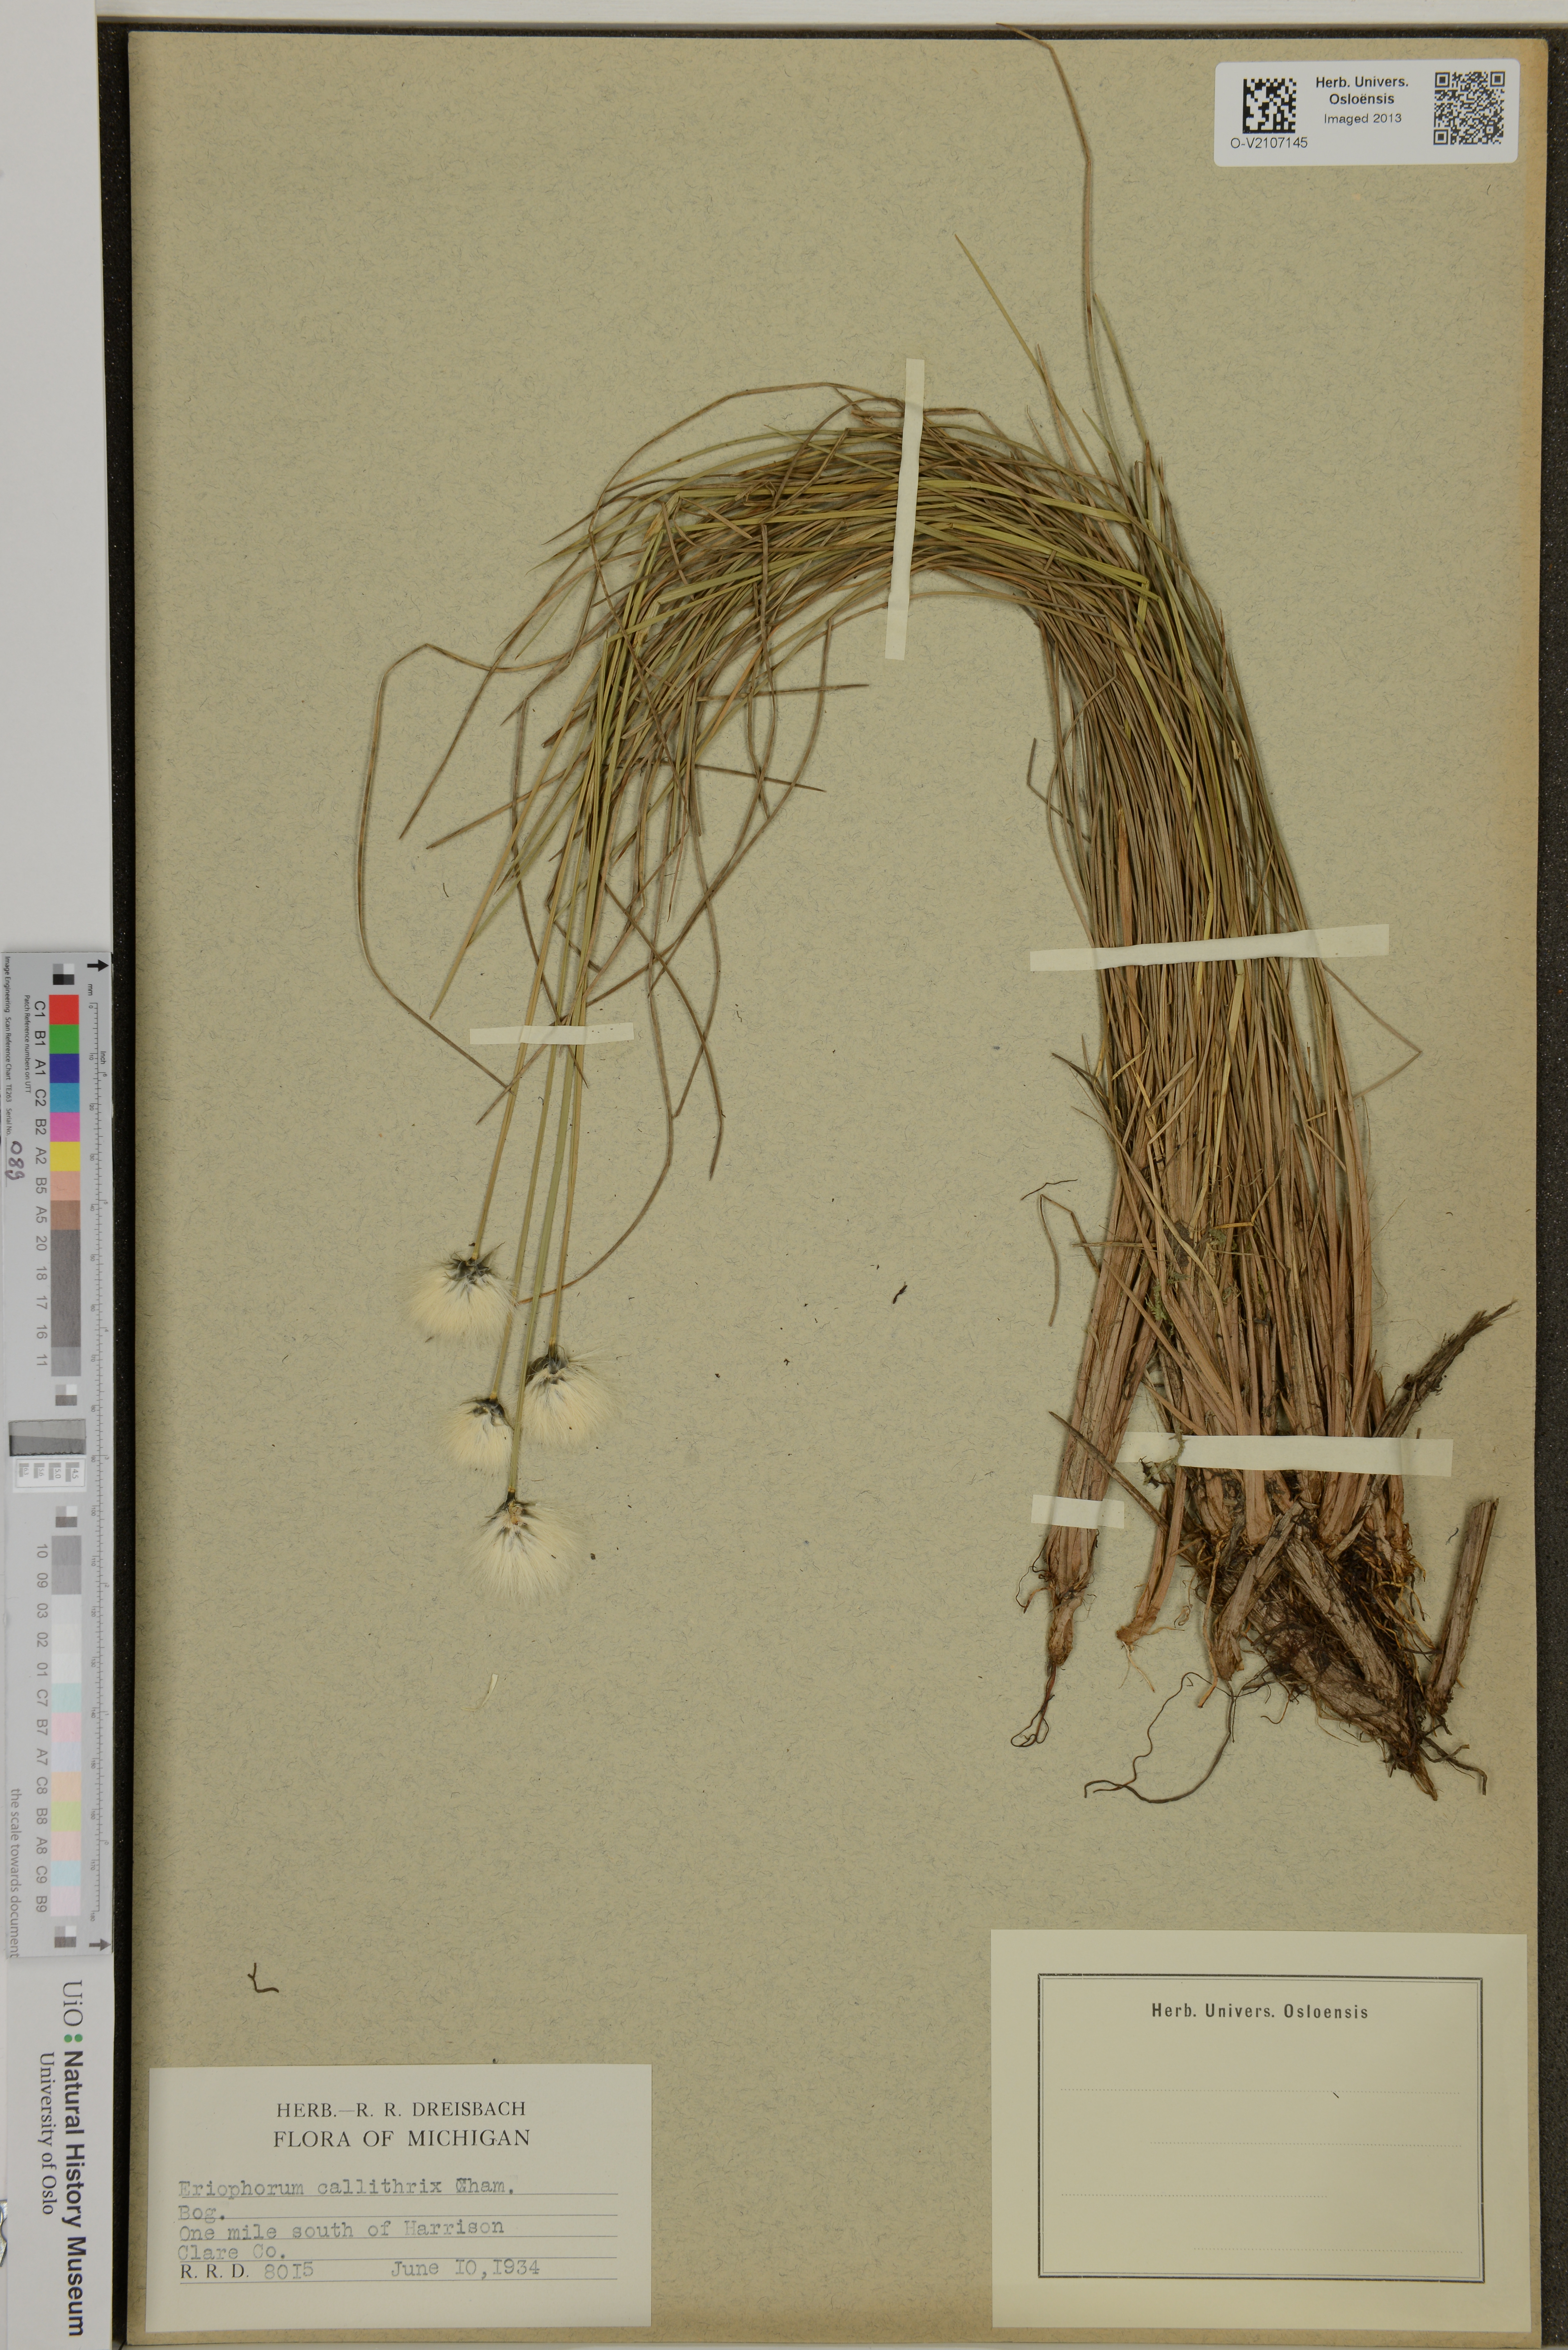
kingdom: Plantae
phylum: Tracheophyta
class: Liliopsida
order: Poales
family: Cyperaceae
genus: Eriophorum
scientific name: Eriophorum vaginatum
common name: Hare's-tail cottongrass
